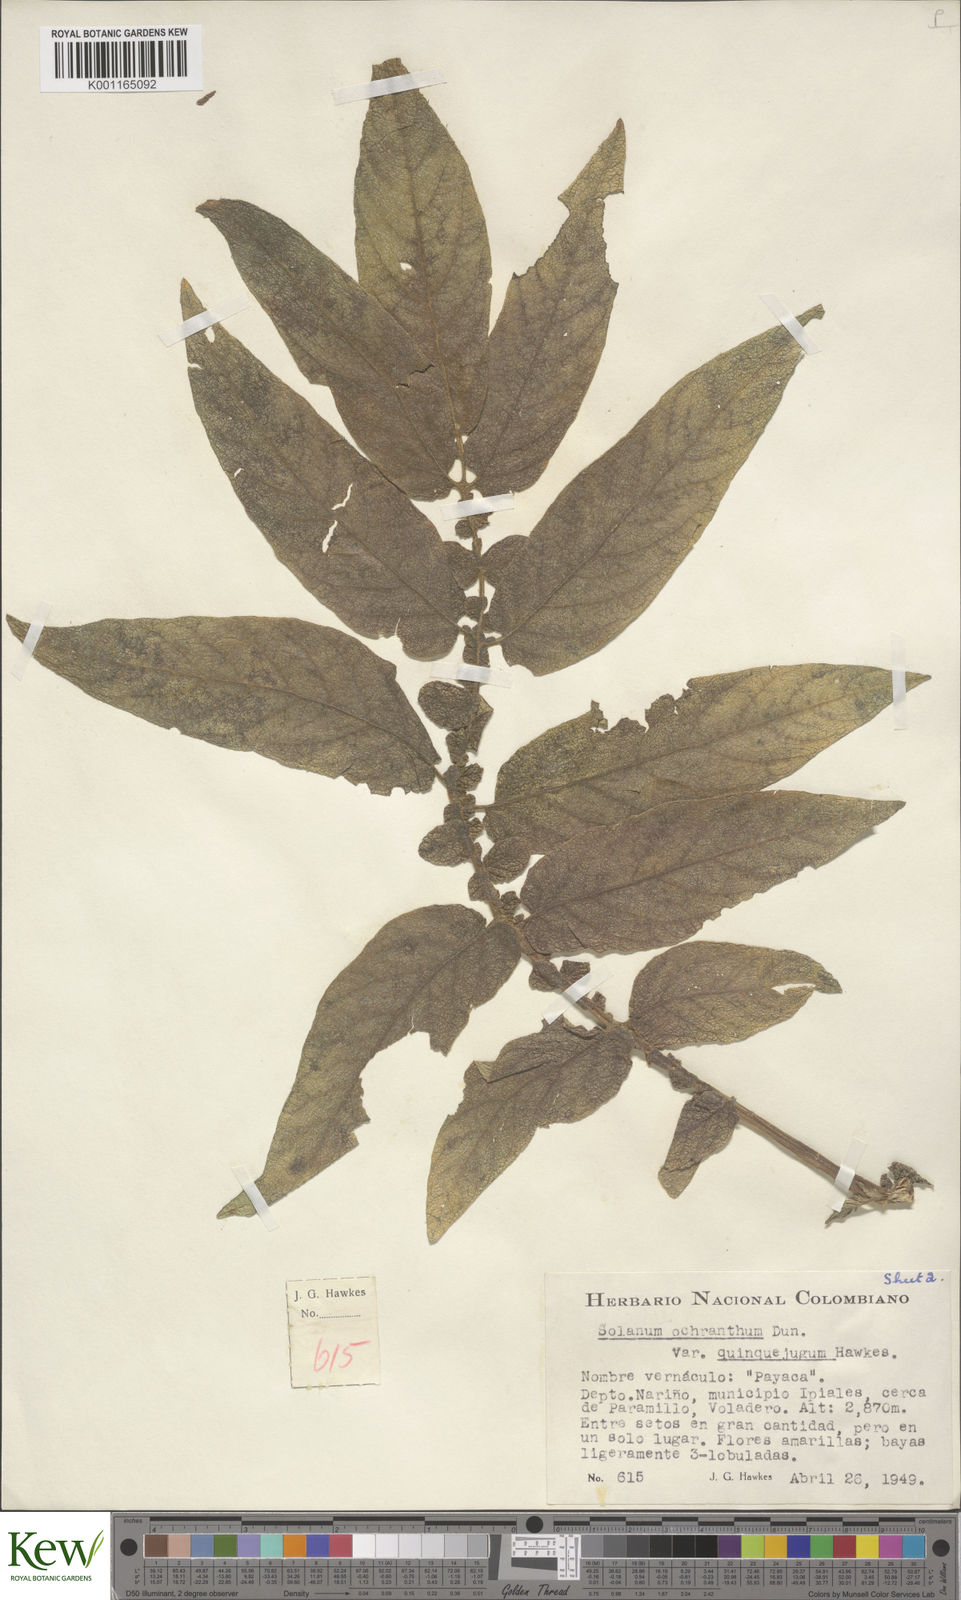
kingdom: Plantae
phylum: Tracheophyta
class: Magnoliopsida
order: Solanales
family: Solanaceae
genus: Solanum
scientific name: Solanum ochranthum
